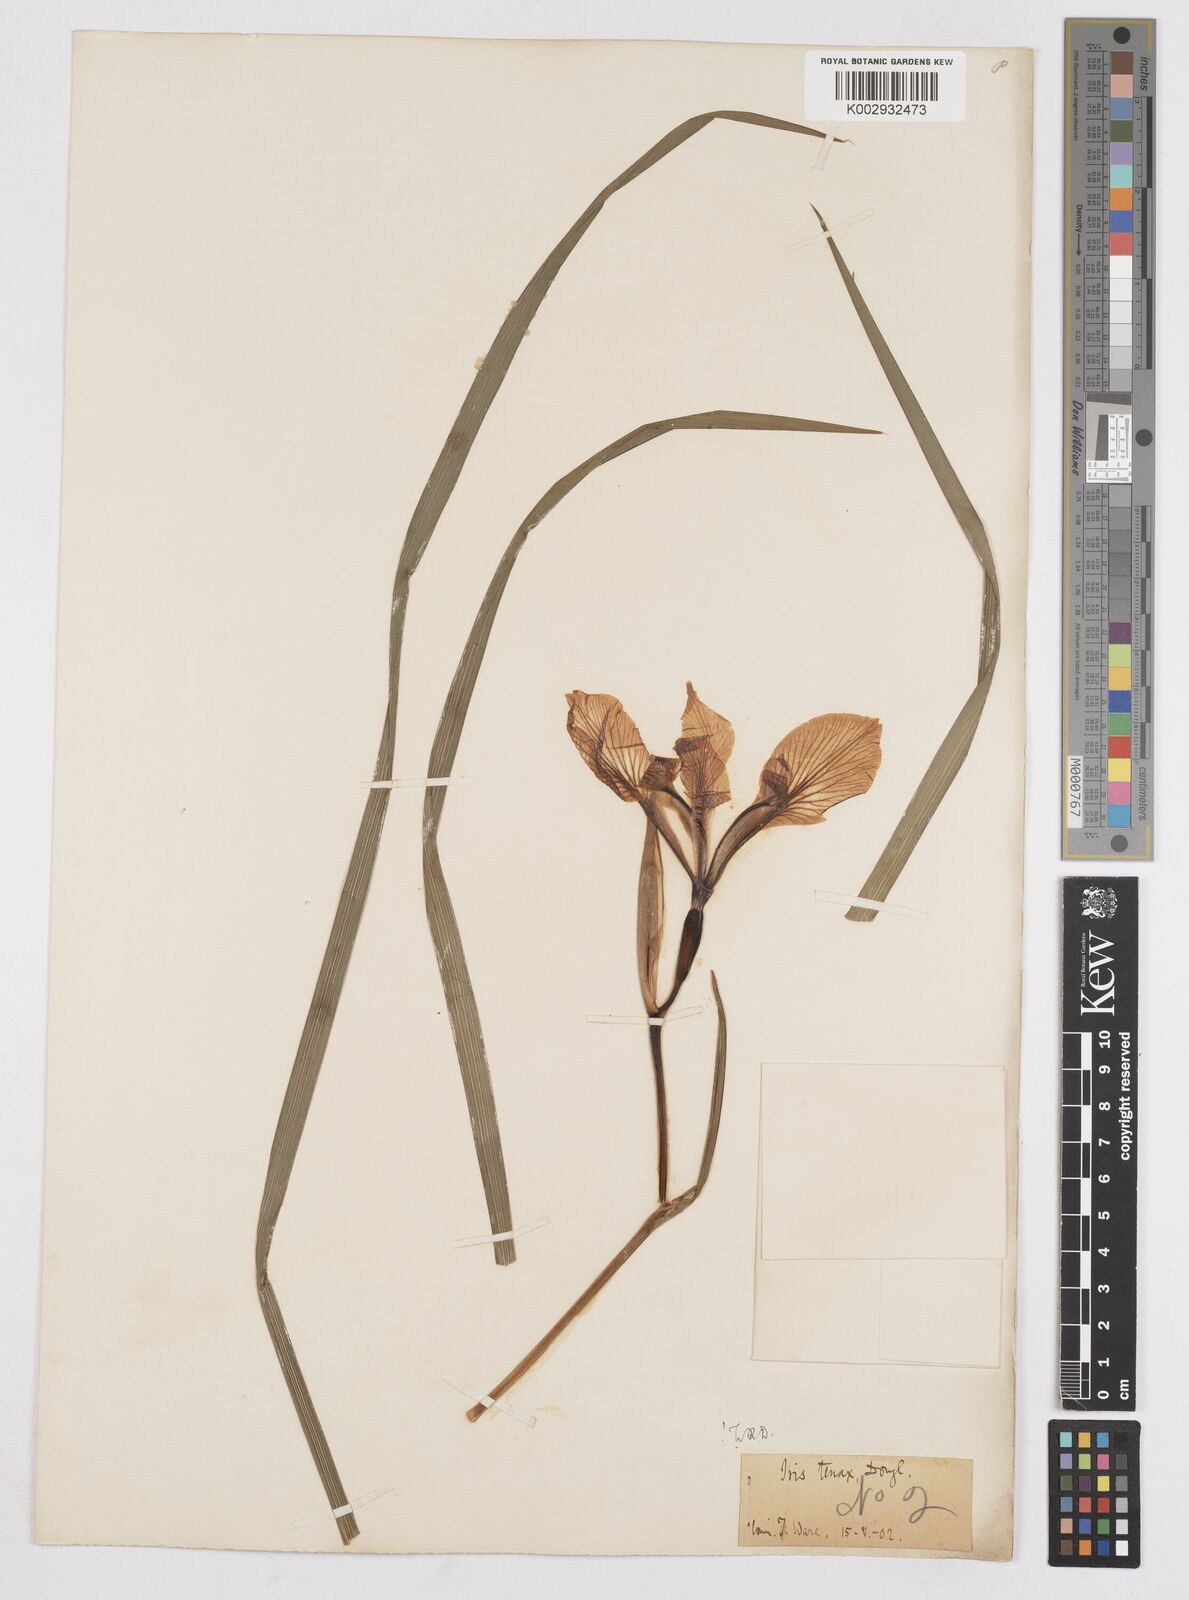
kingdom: Plantae
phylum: Tracheophyta
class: Liliopsida
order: Asparagales
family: Iridaceae
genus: Iris
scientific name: Iris tenax
